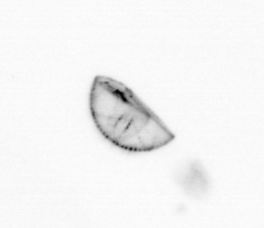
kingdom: Chromista
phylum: Ochrophyta
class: Bacillariophyceae
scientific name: Bacillariophyceae
